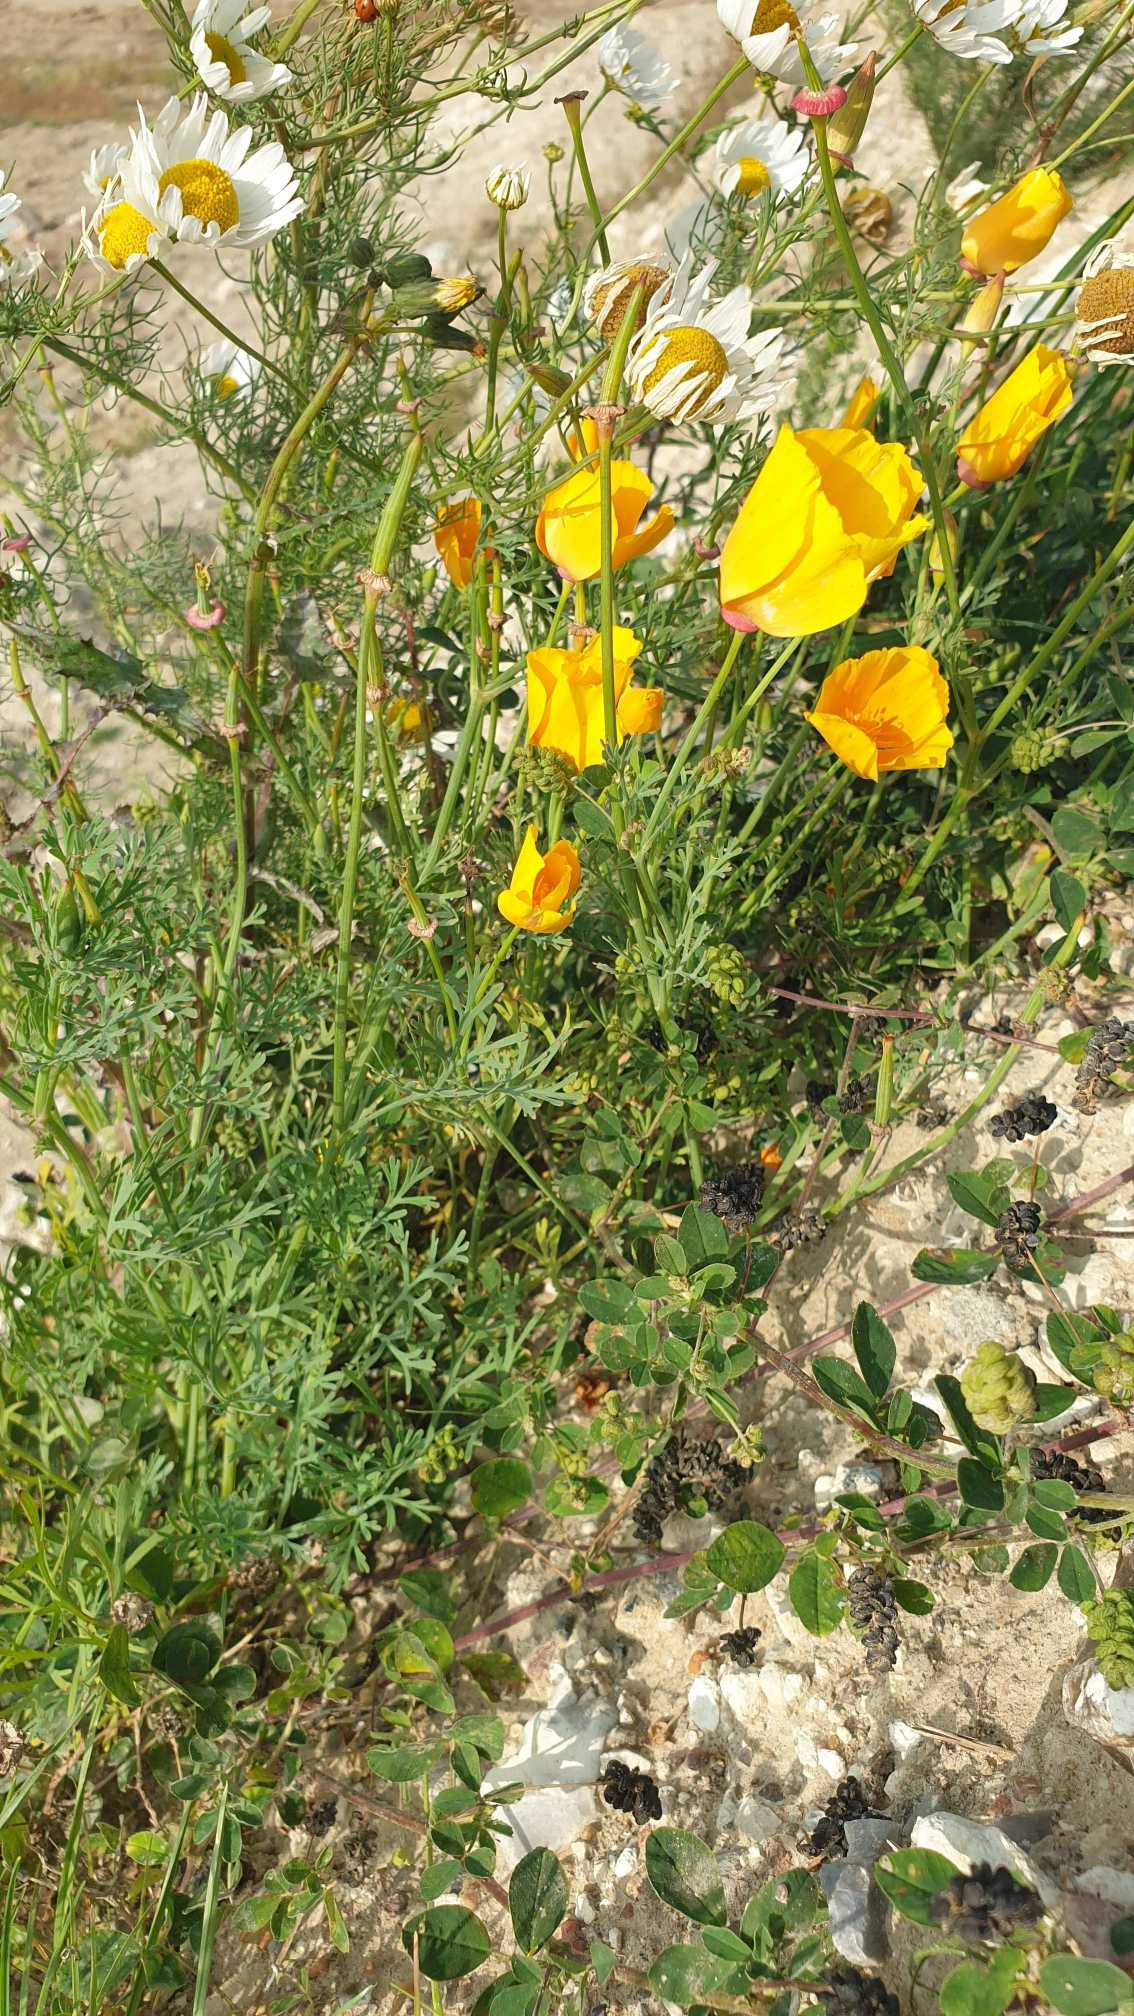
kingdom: Plantae
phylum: Tracheophyta
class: Magnoliopsida
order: Ranunculales
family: Papaveraceae
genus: Eschscholzia
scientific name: Eschscholzia californica
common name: Guldvalmue
